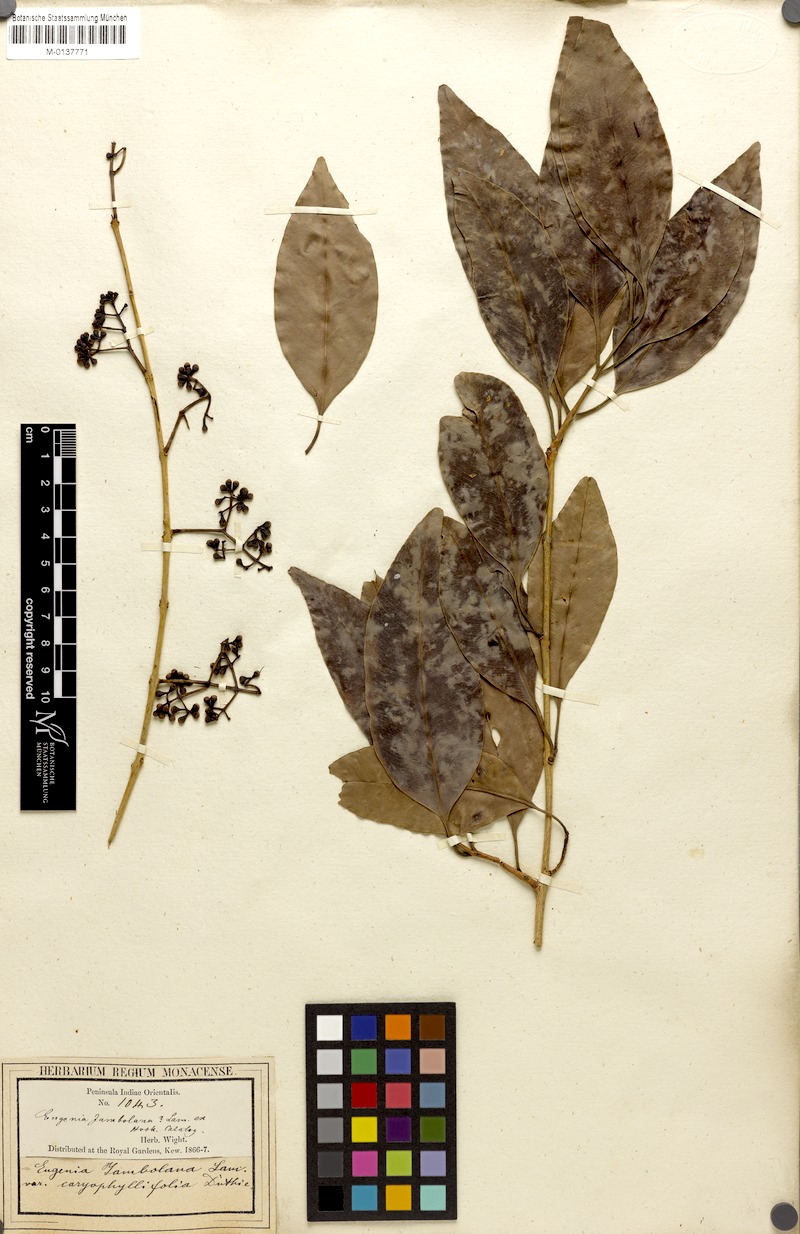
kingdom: Plantae
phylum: Tracheophyta
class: Magnoliopsida
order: Myrtales
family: Myrtaceae
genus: Syzygium
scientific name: Syzygium cumini
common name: Java plum
